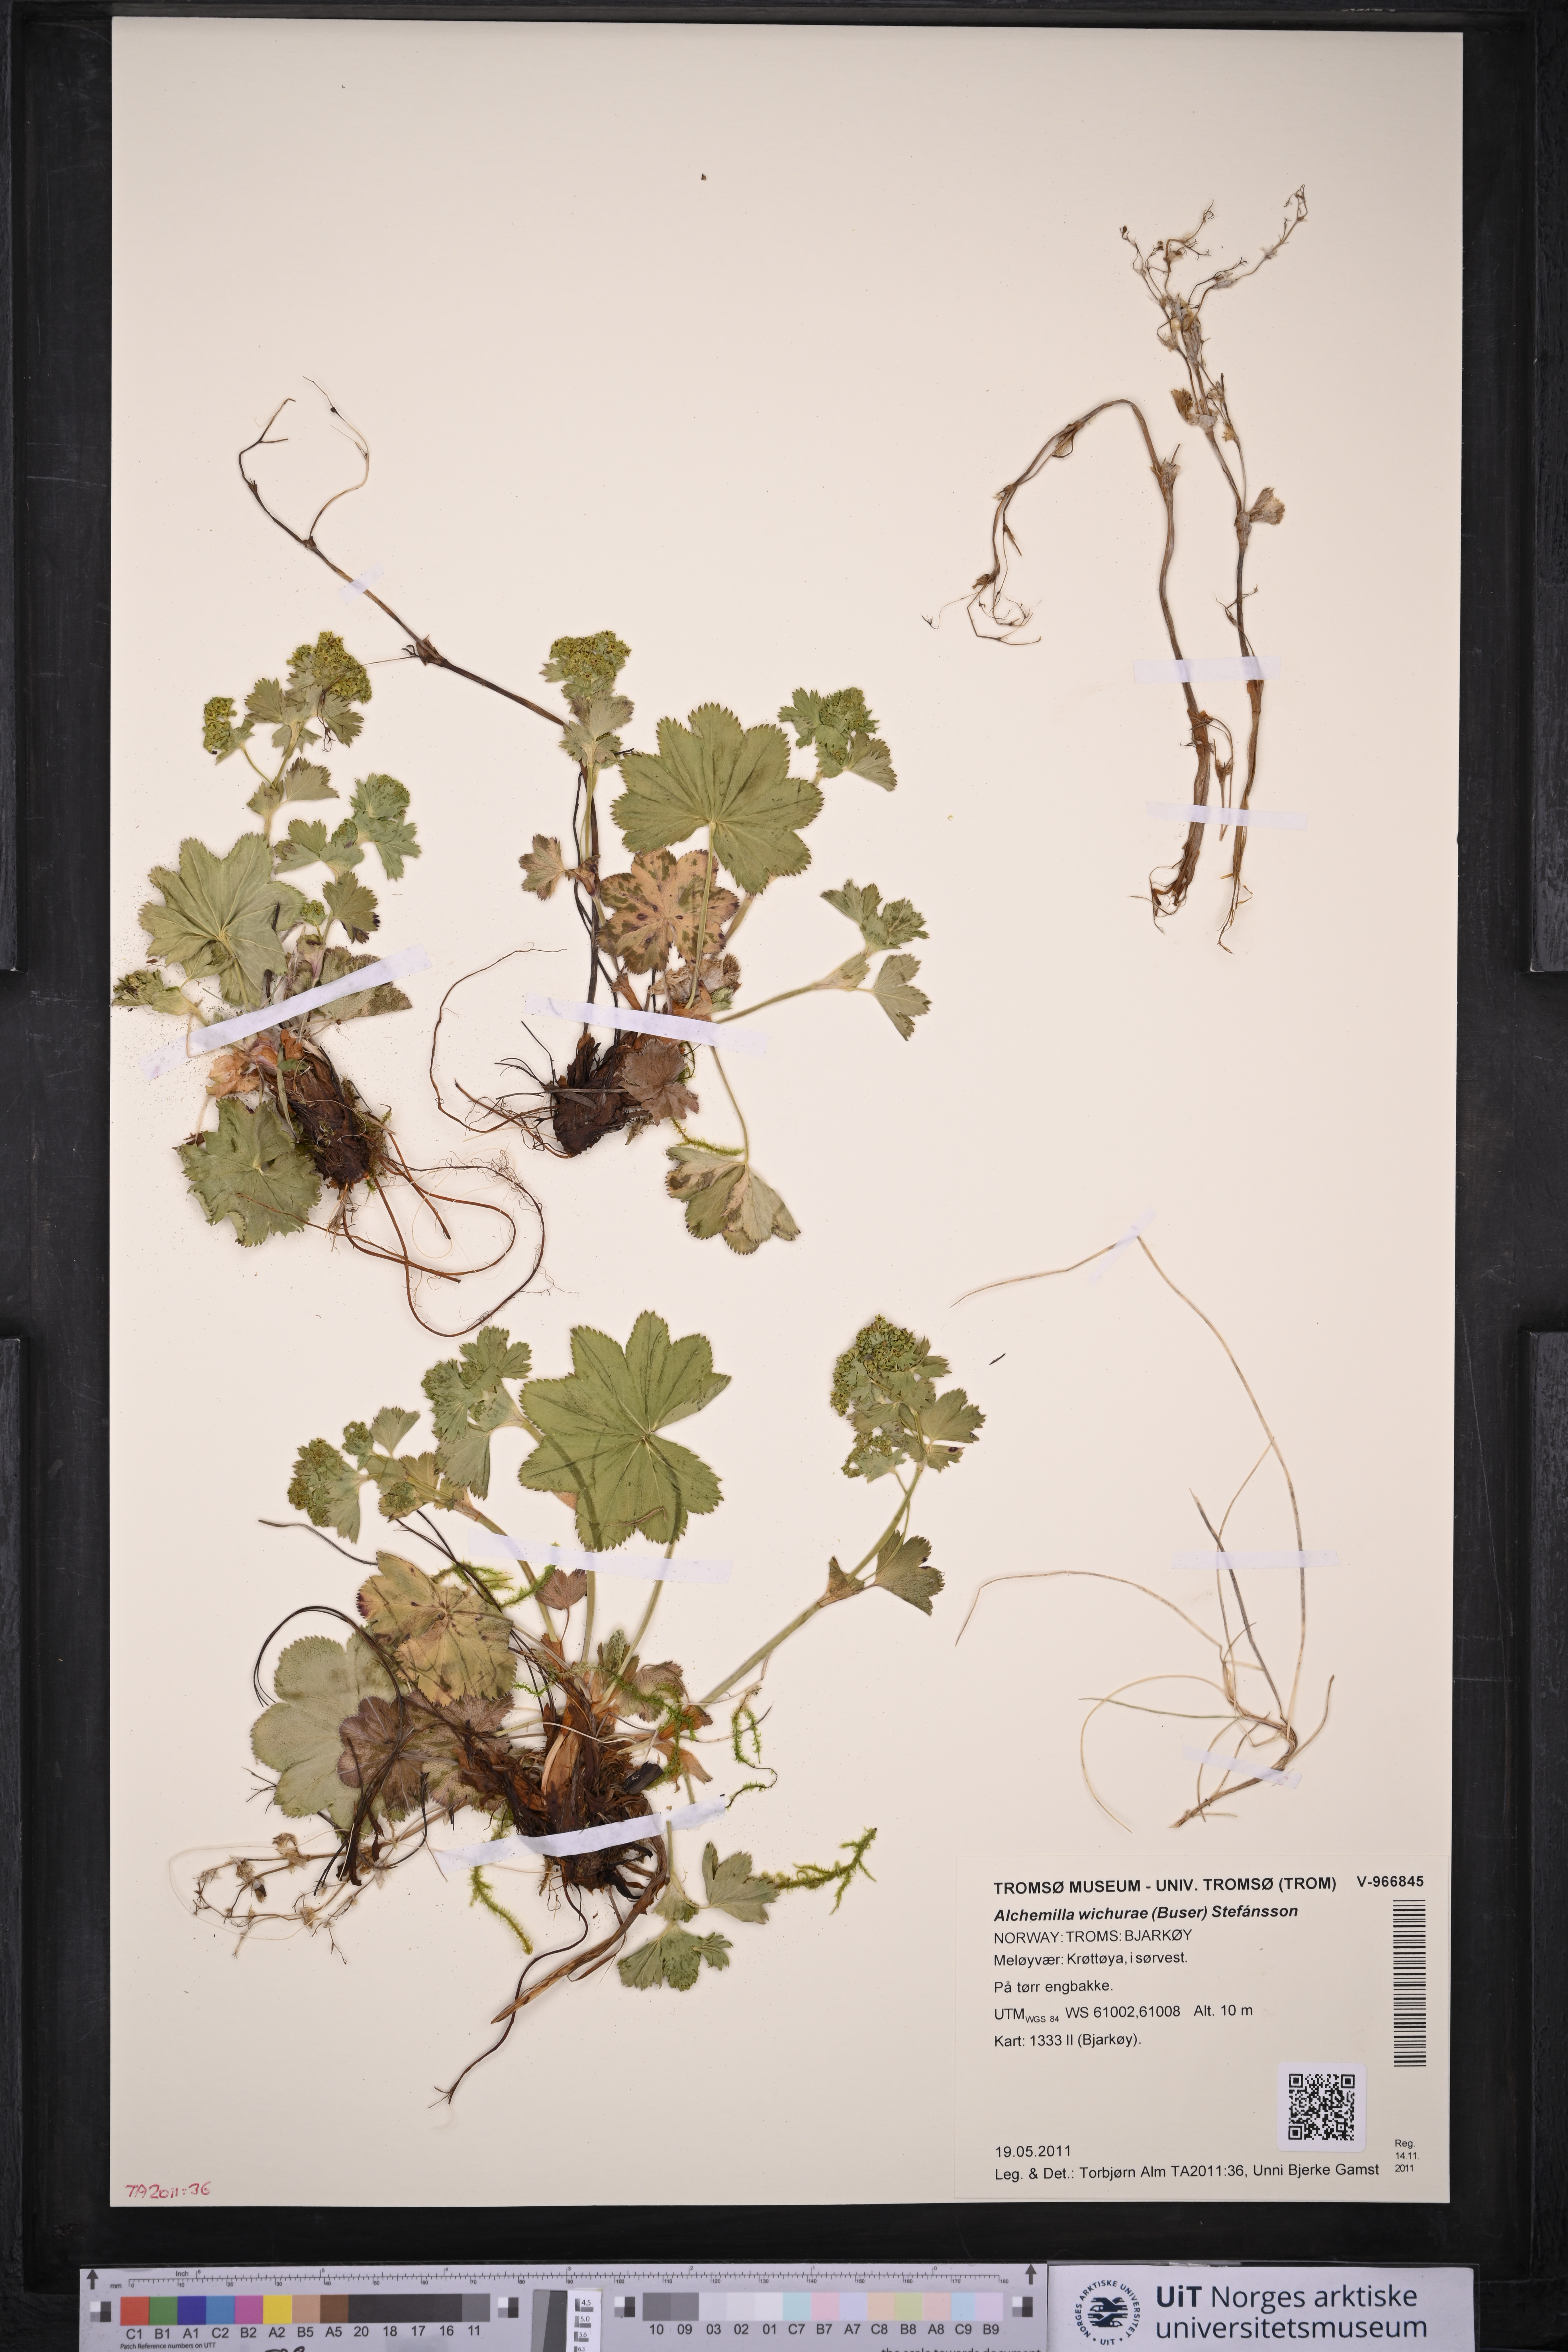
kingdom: Plantae
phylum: Tracheophyta
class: Magnoliopsida
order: Rosales
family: Rosaceae
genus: Alchemilla
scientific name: Alchemilla wichurae
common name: Rock lady's mantle
